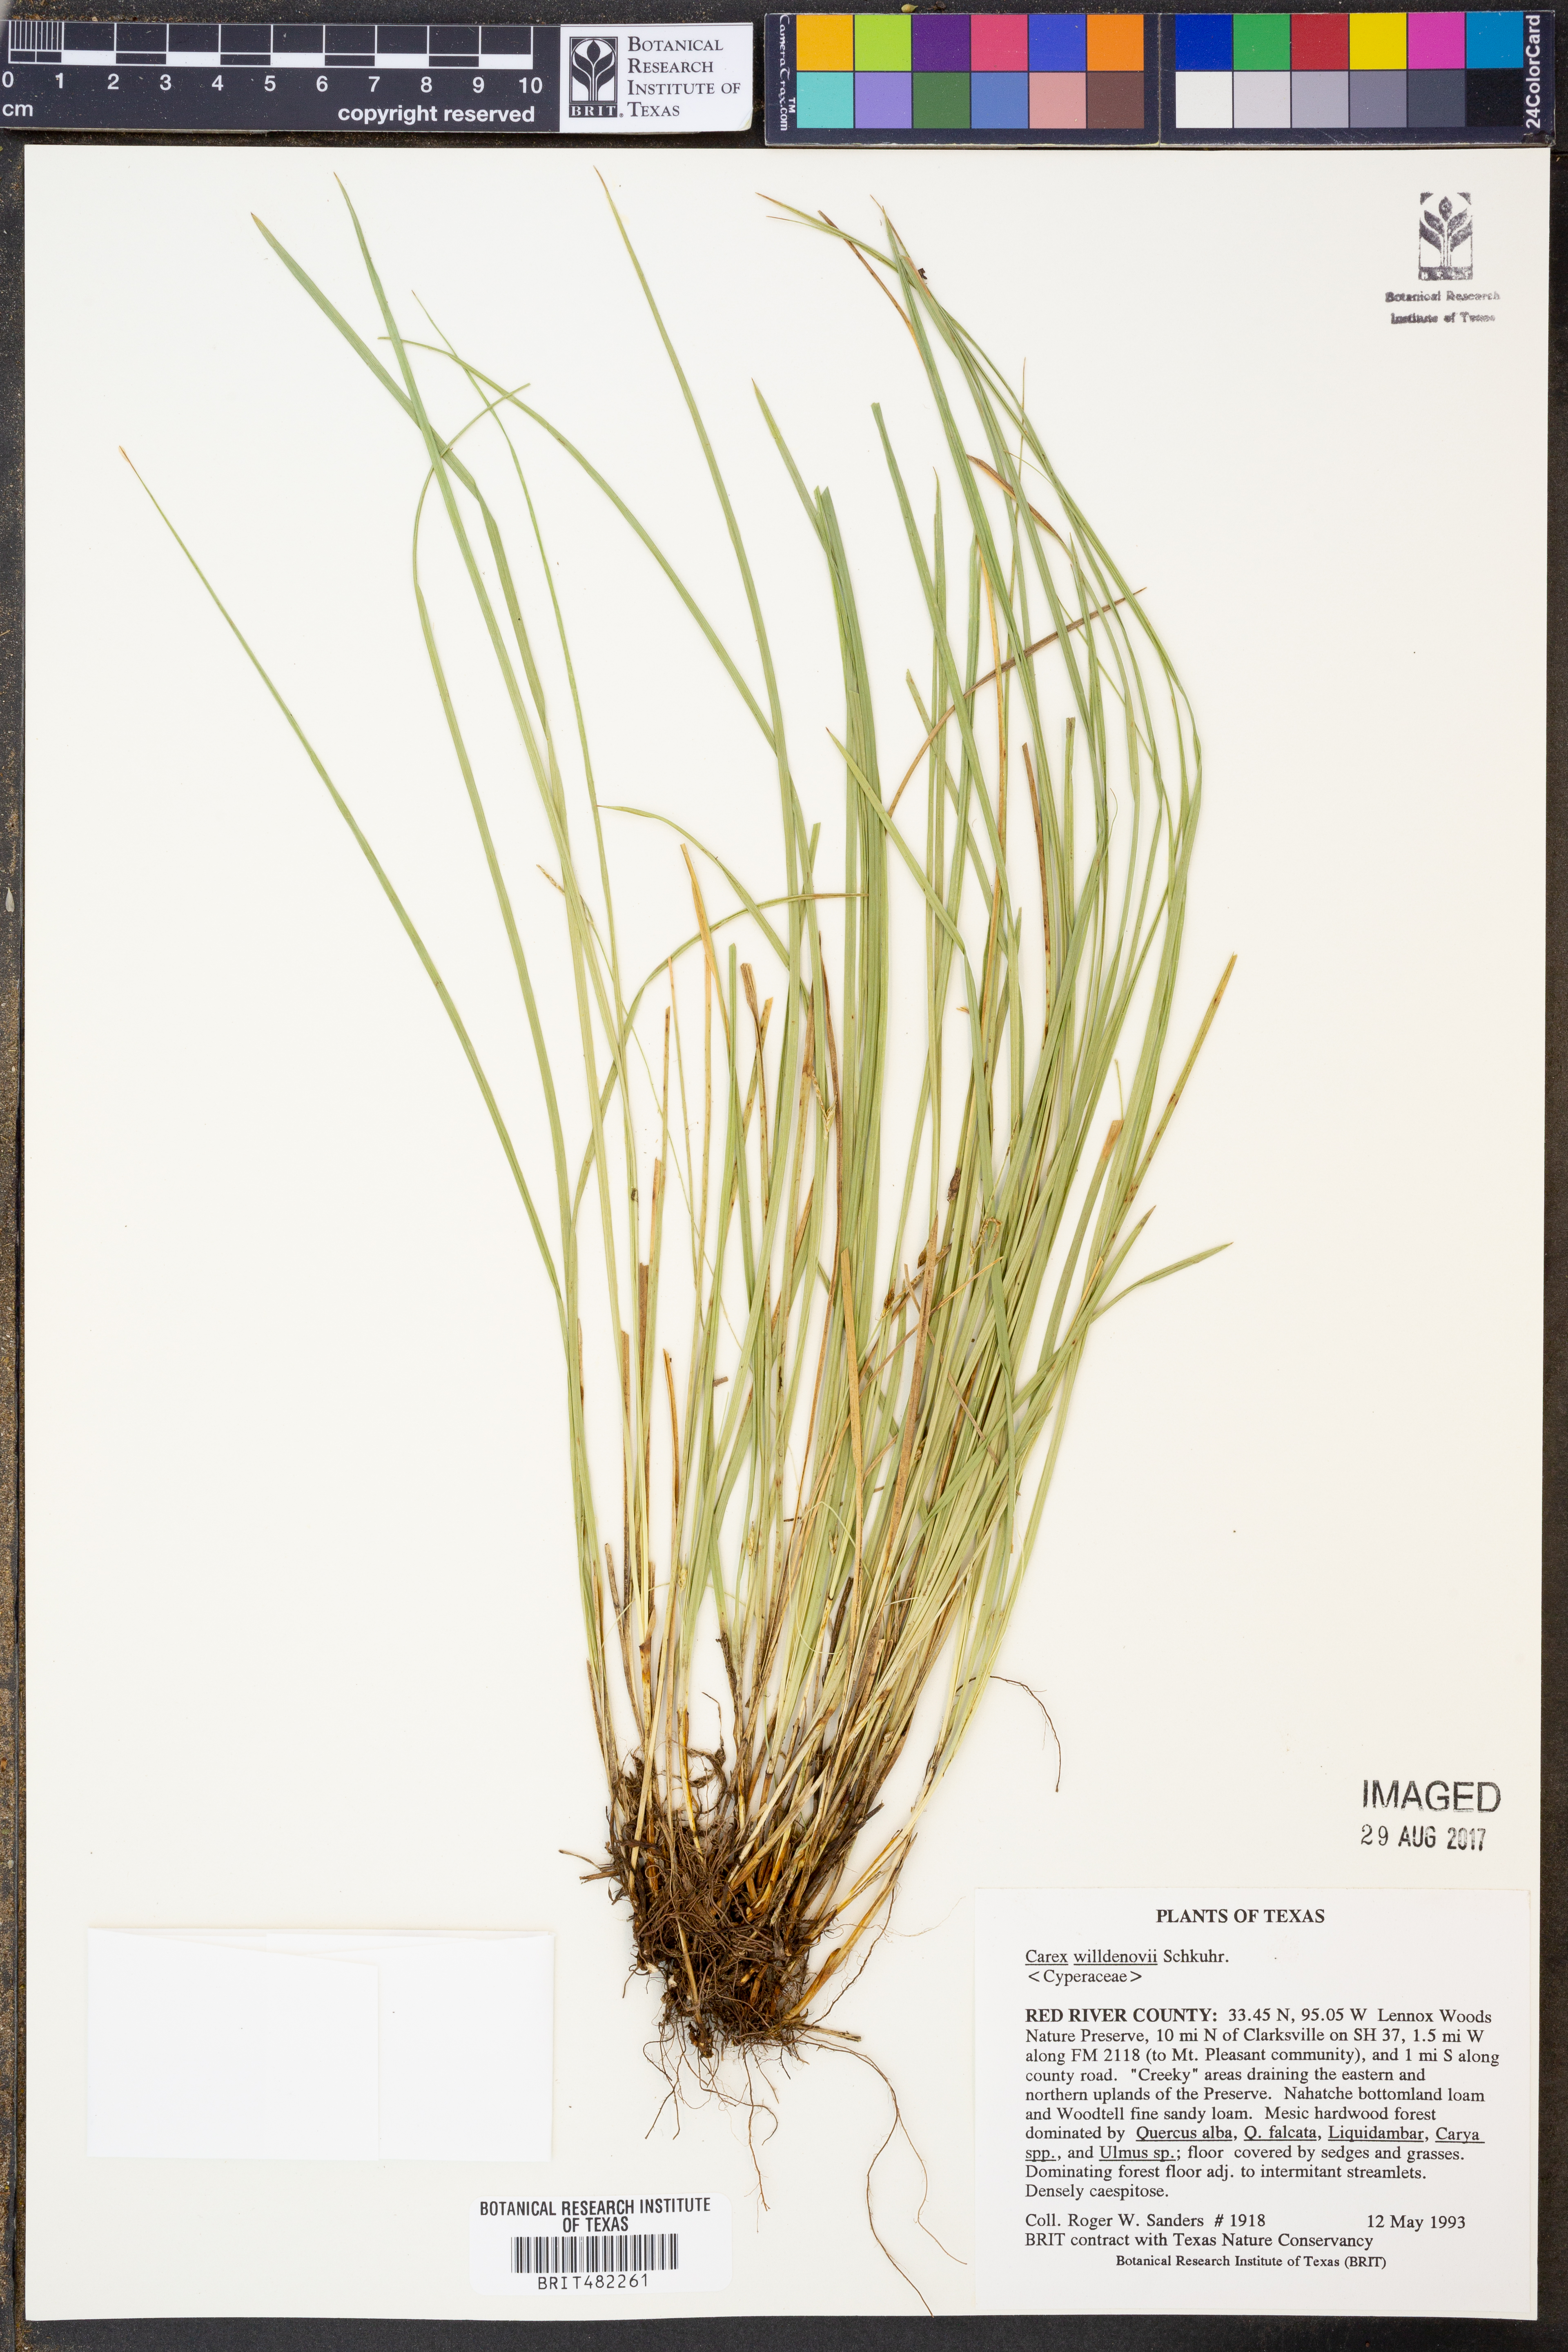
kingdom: Plantae
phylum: Tracheophyta
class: Liliopsida
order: Poales
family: Cyperaceae
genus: Carex
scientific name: Carex willdenowii
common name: Willdenow's sedge
